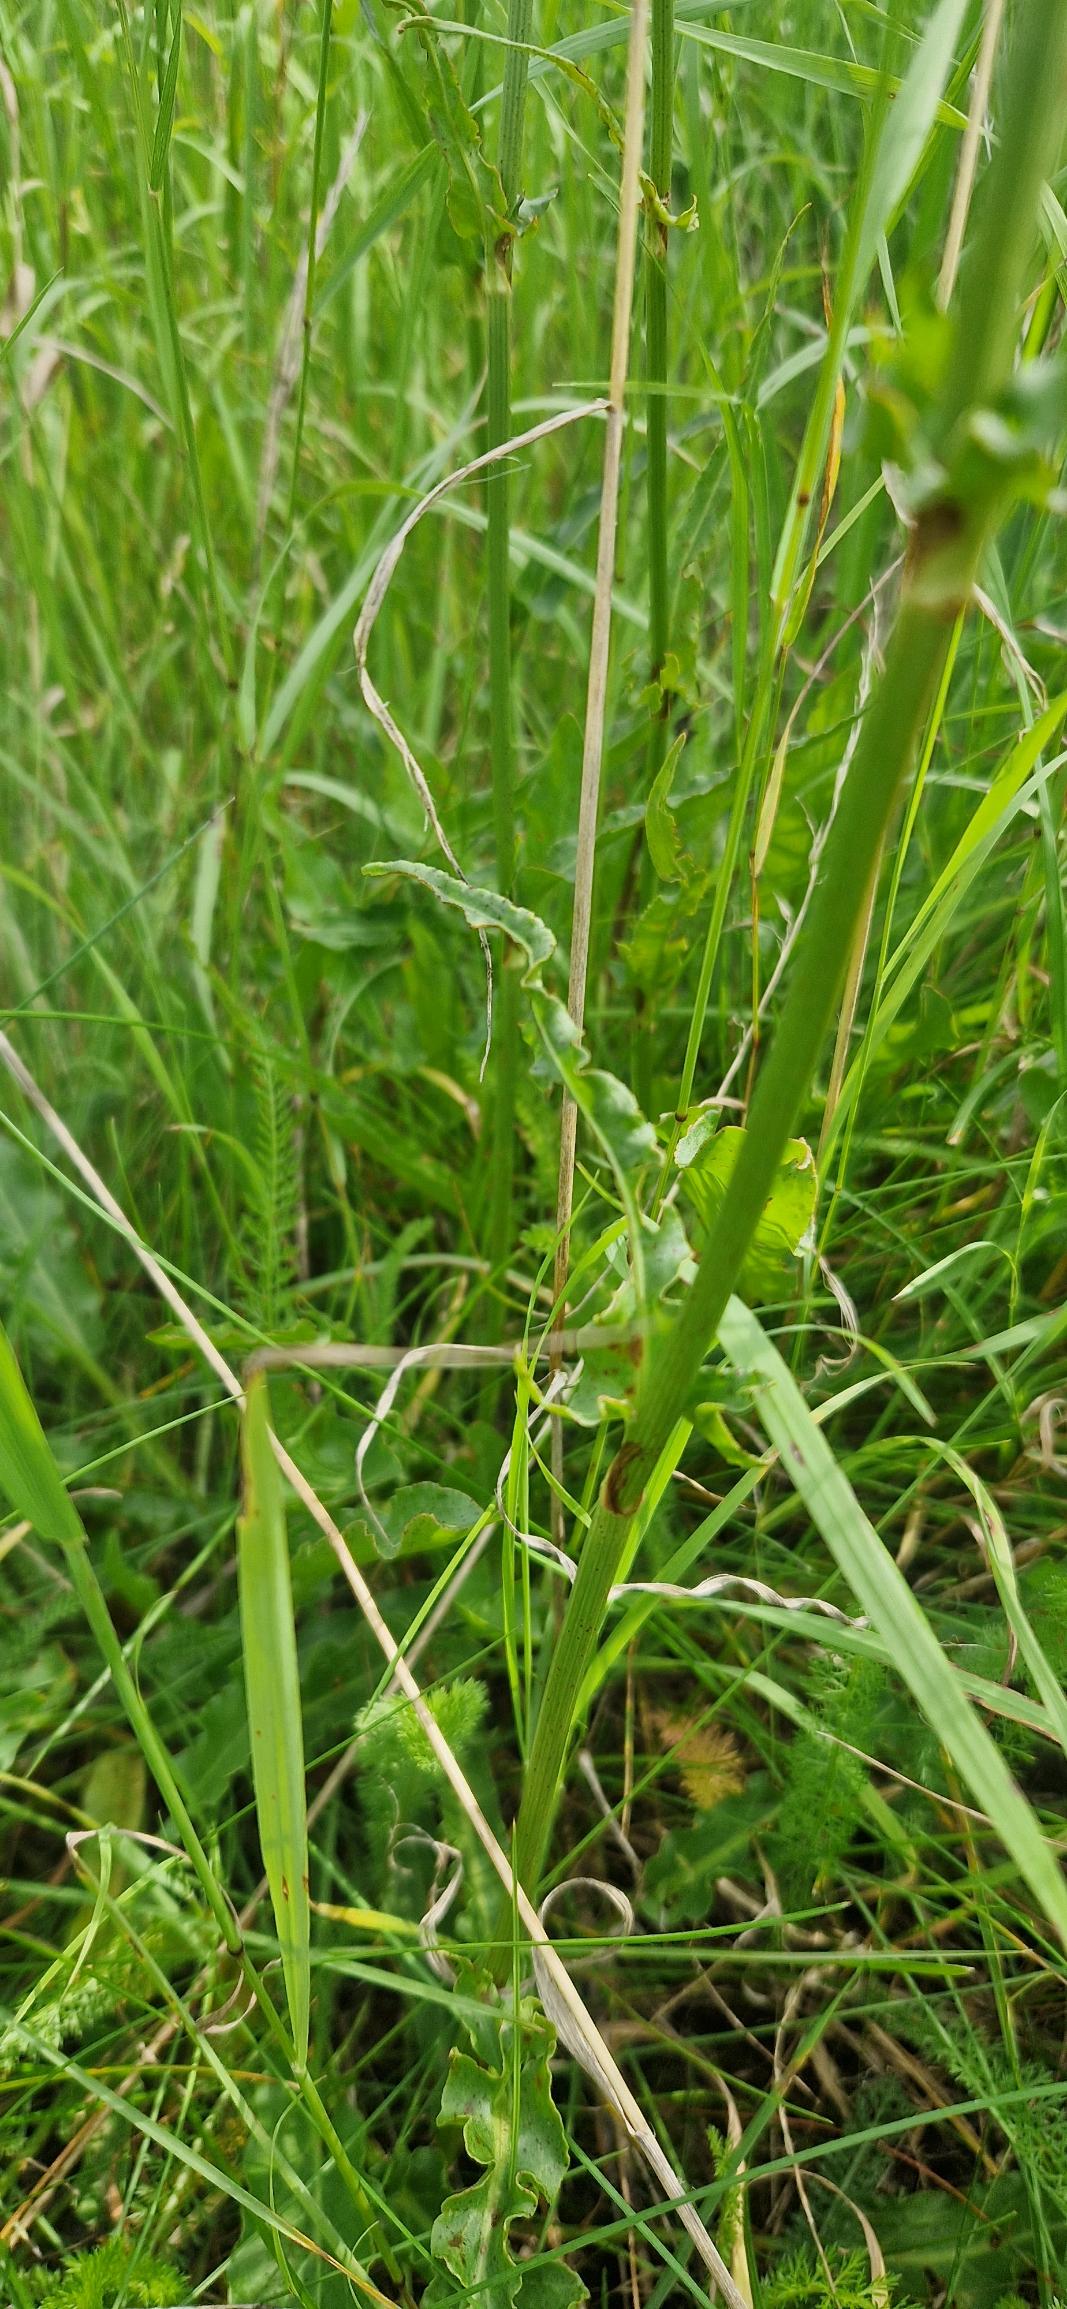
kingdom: Plantae
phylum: Tracheophyta
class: Magnoliopsida
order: Caryophyllales
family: Polygonaceae
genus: Rumex
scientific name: Rumex thyrsiflorus
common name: Dusk-syre
